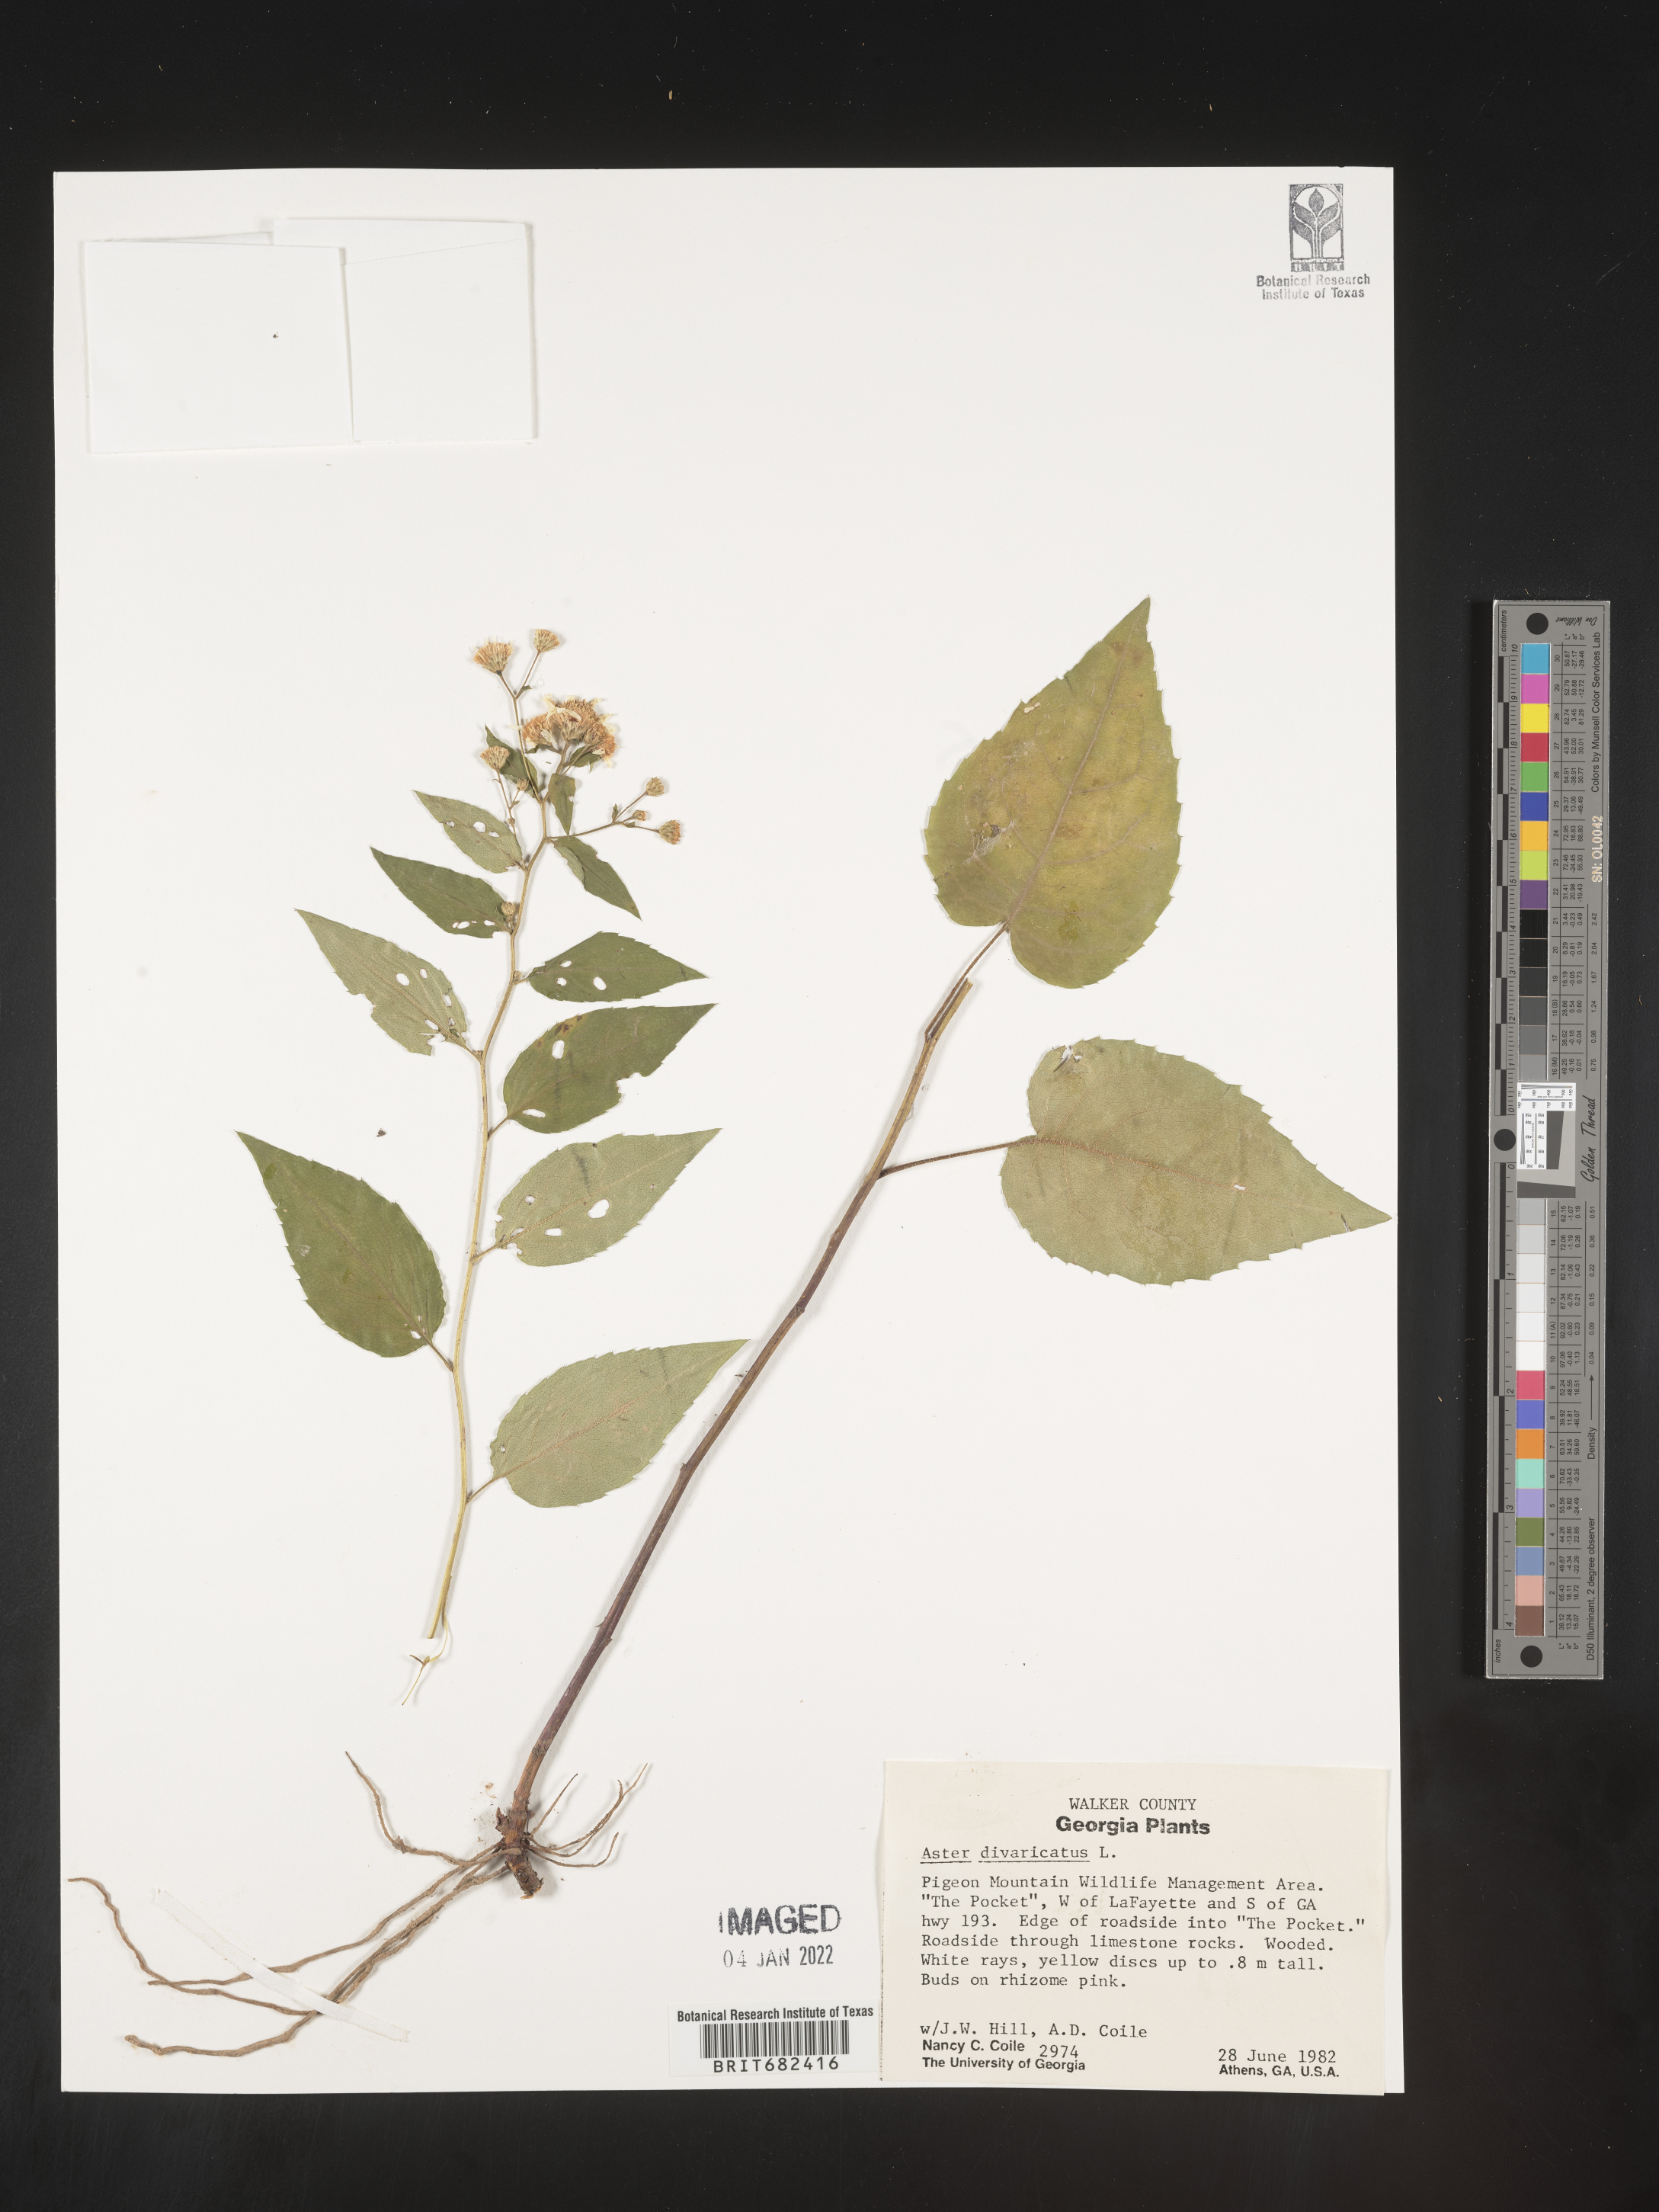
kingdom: Plantae
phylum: Tracheophyta
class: Magnoliopsida
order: Asterales
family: Asteraceae
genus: Aster
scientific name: Aster
